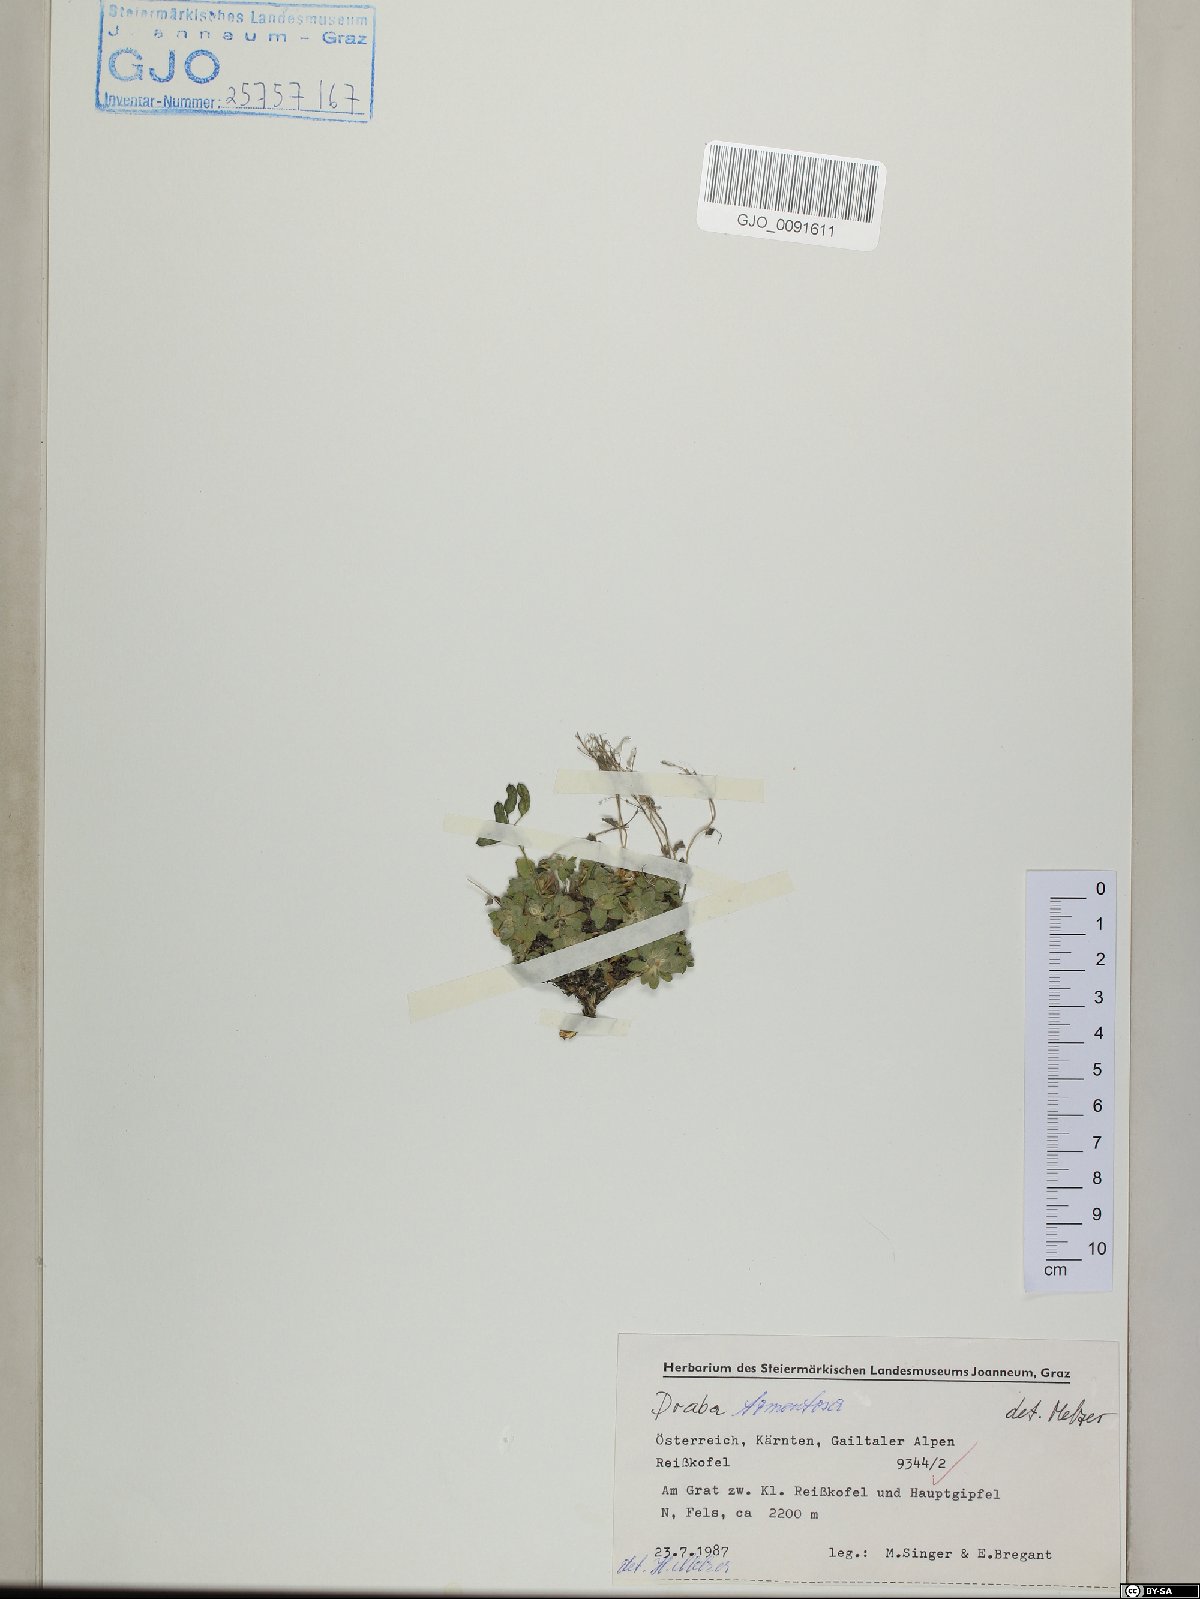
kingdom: Plantae
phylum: Tracheophyta
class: Magnoliopsida
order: Brassicales
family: Brassicaceae
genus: Draba
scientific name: Draba tomentosa
